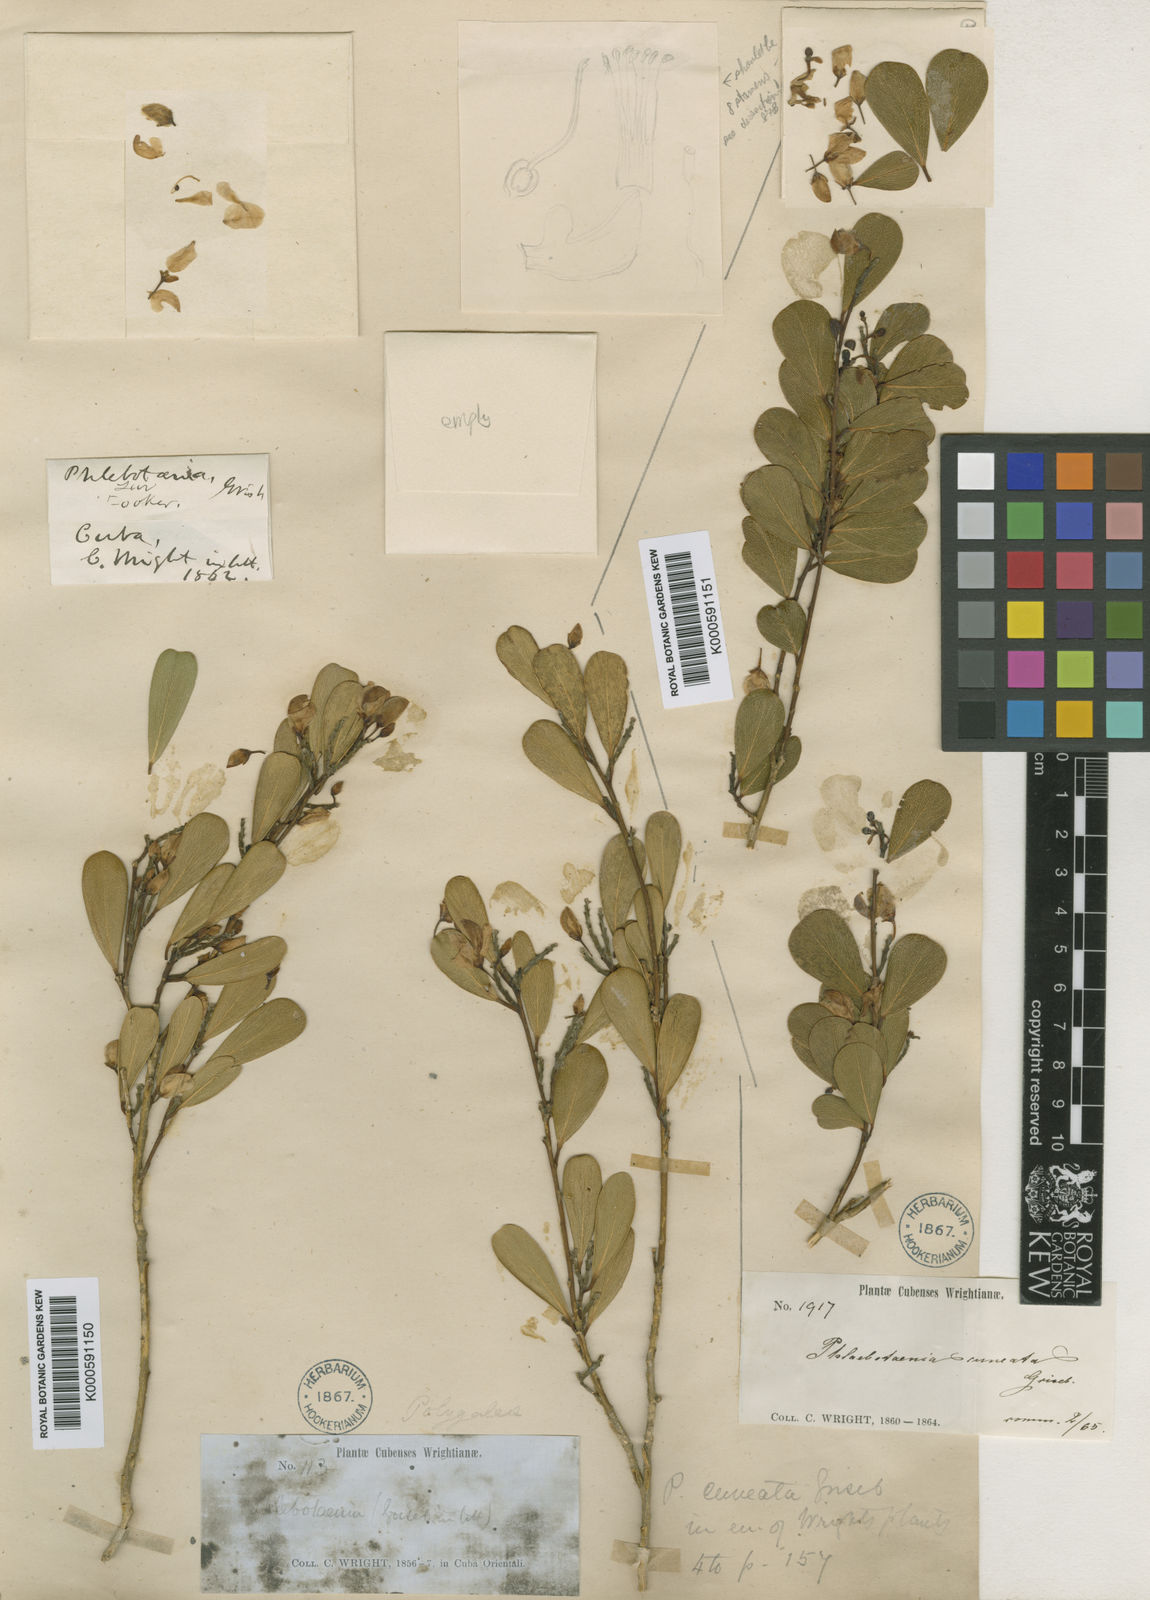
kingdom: Plantae
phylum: Tracheophyta
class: Magnoliopsida
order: Fabales
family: Polygalaceae
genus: Phlebotaenia
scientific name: Phlebotaenia cuneata
